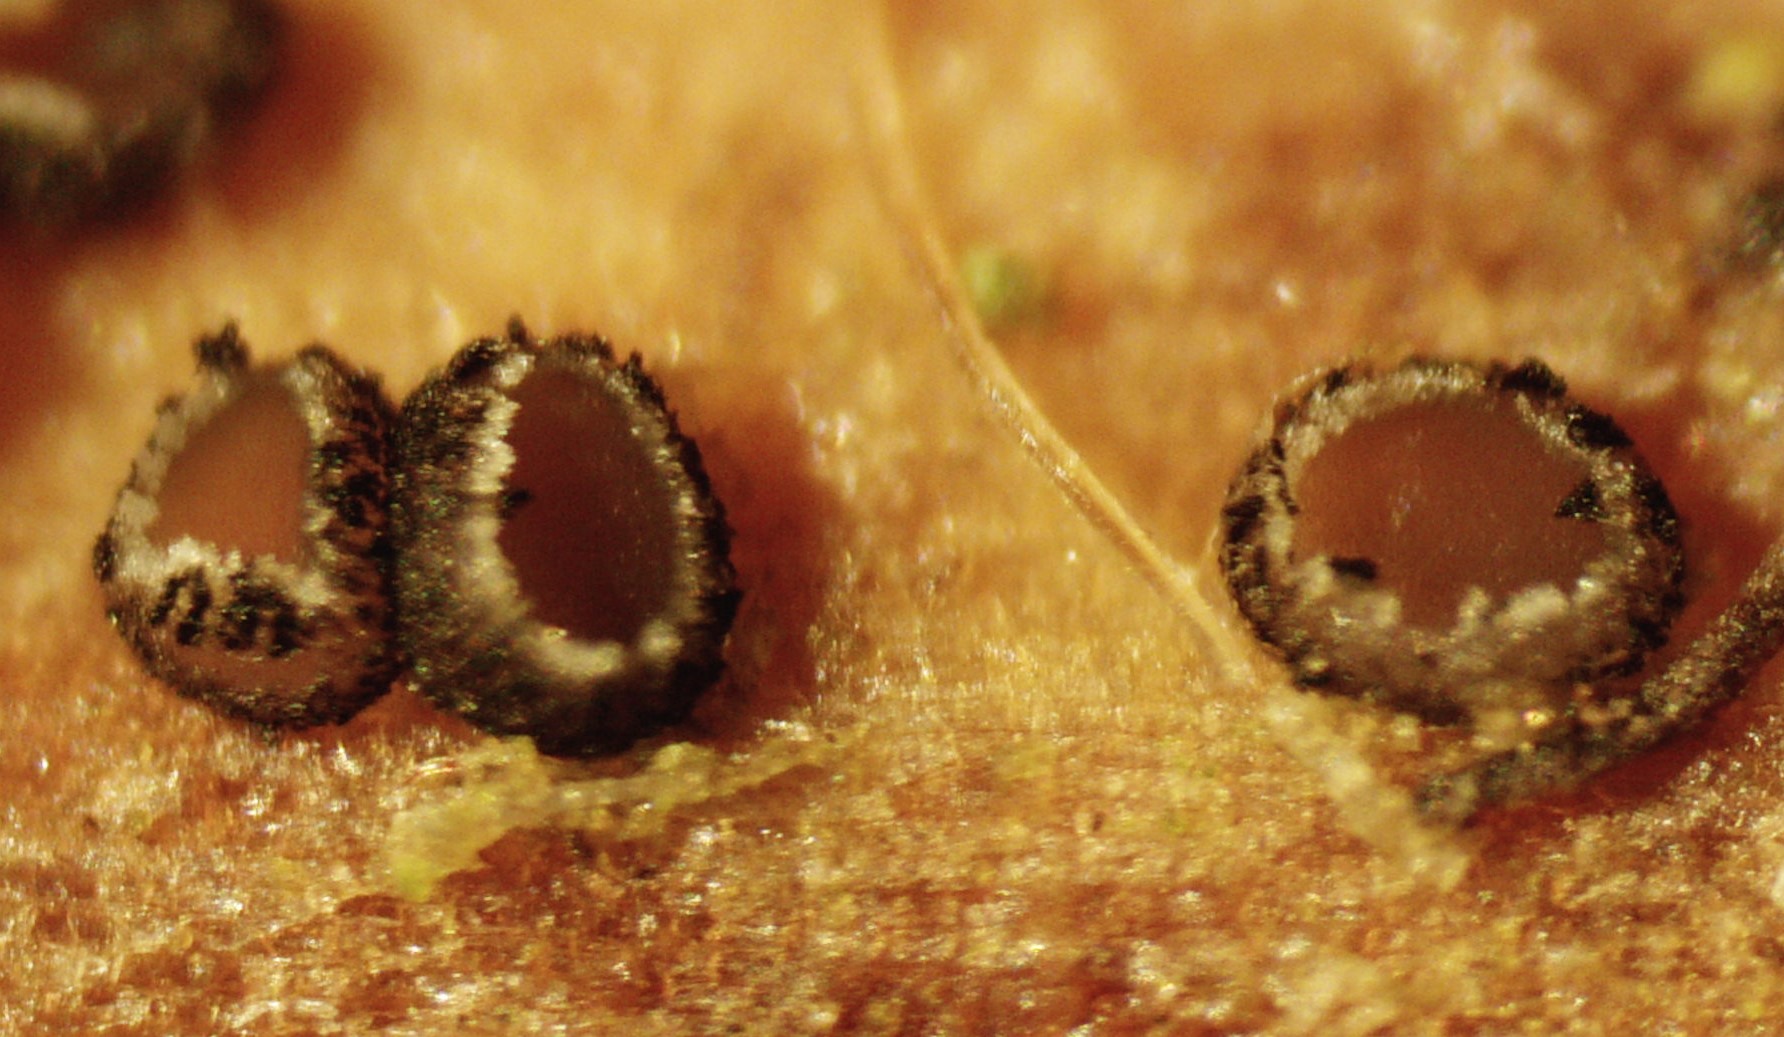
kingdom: Fungi
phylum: Ascomycota
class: Leotiomycetes
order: Helotiales
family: Ploettnerulaceae
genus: Pirottaea
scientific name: Pirottaea lychnidis
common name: pragtstjerne-kerneskive
